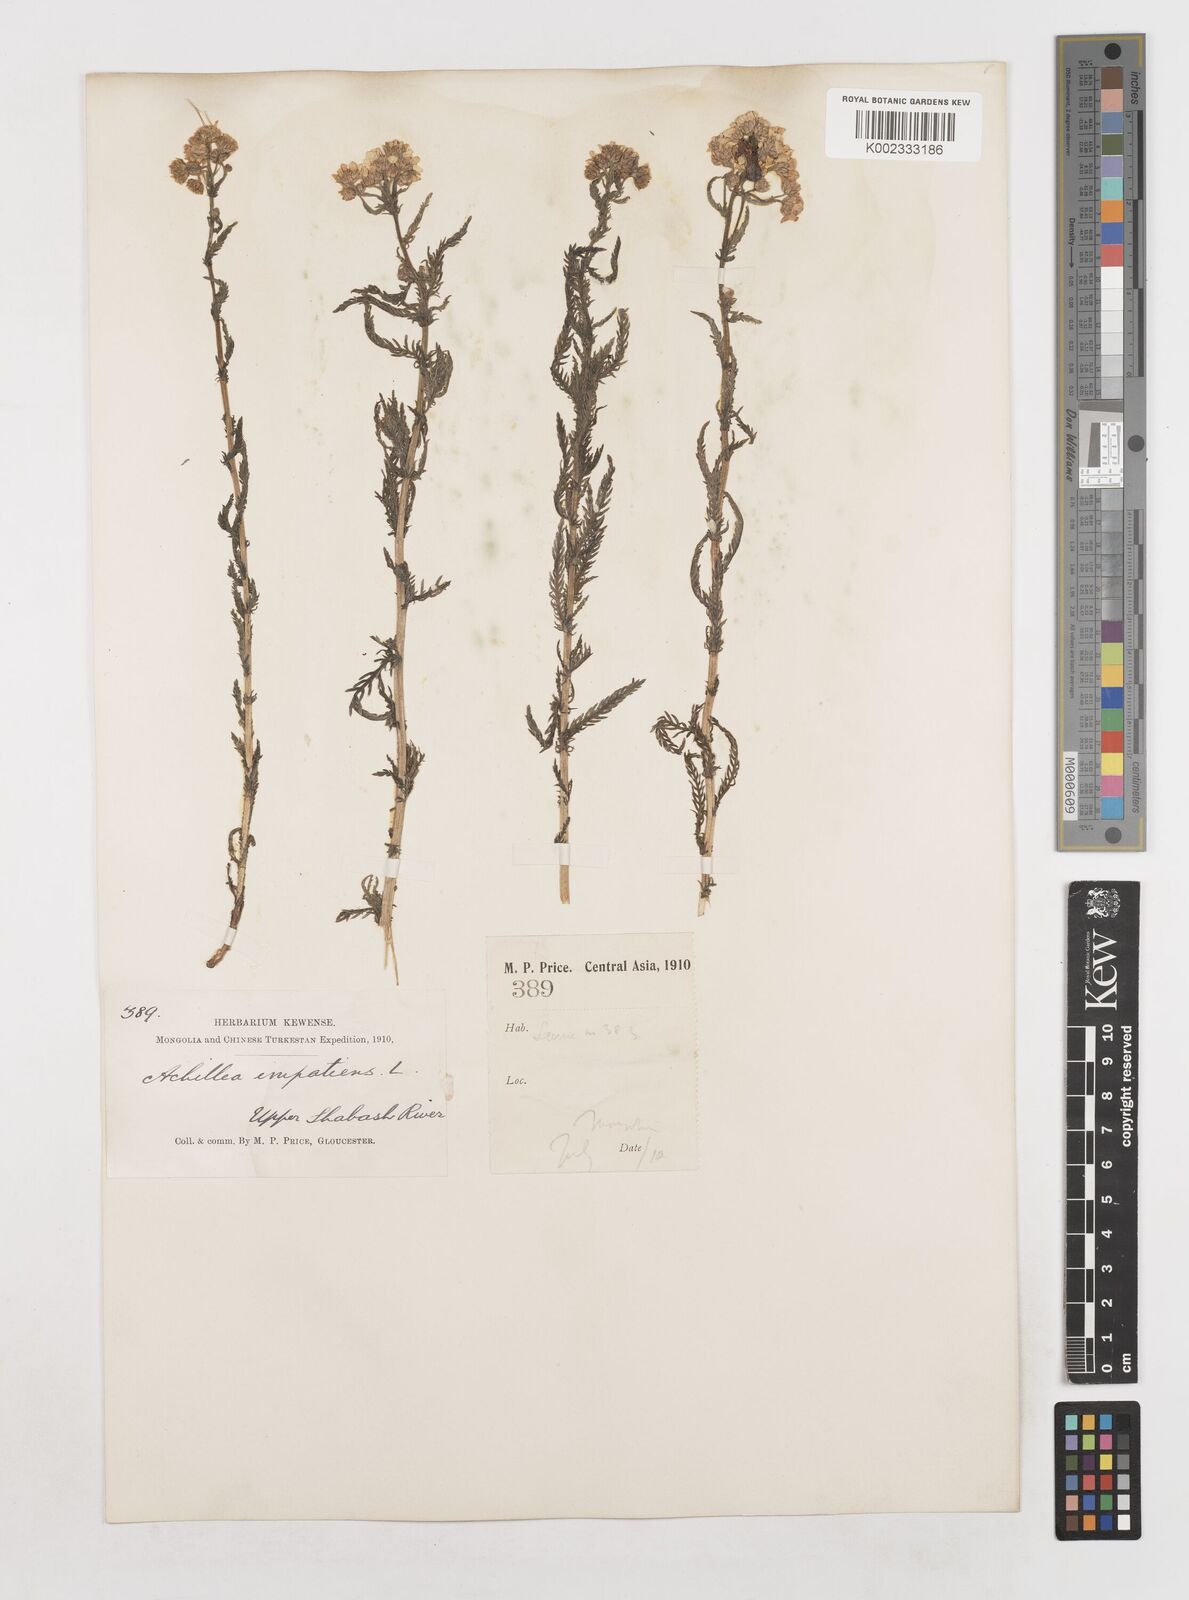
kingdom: Plantae
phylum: Tracheophyta
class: Magnoliopsida
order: Asterales
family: Asteraceae
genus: Achillea
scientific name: Achillea impatiens
